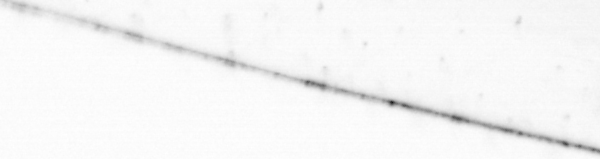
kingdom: Animalia
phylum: Chaetognatha
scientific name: Chaetognatha
